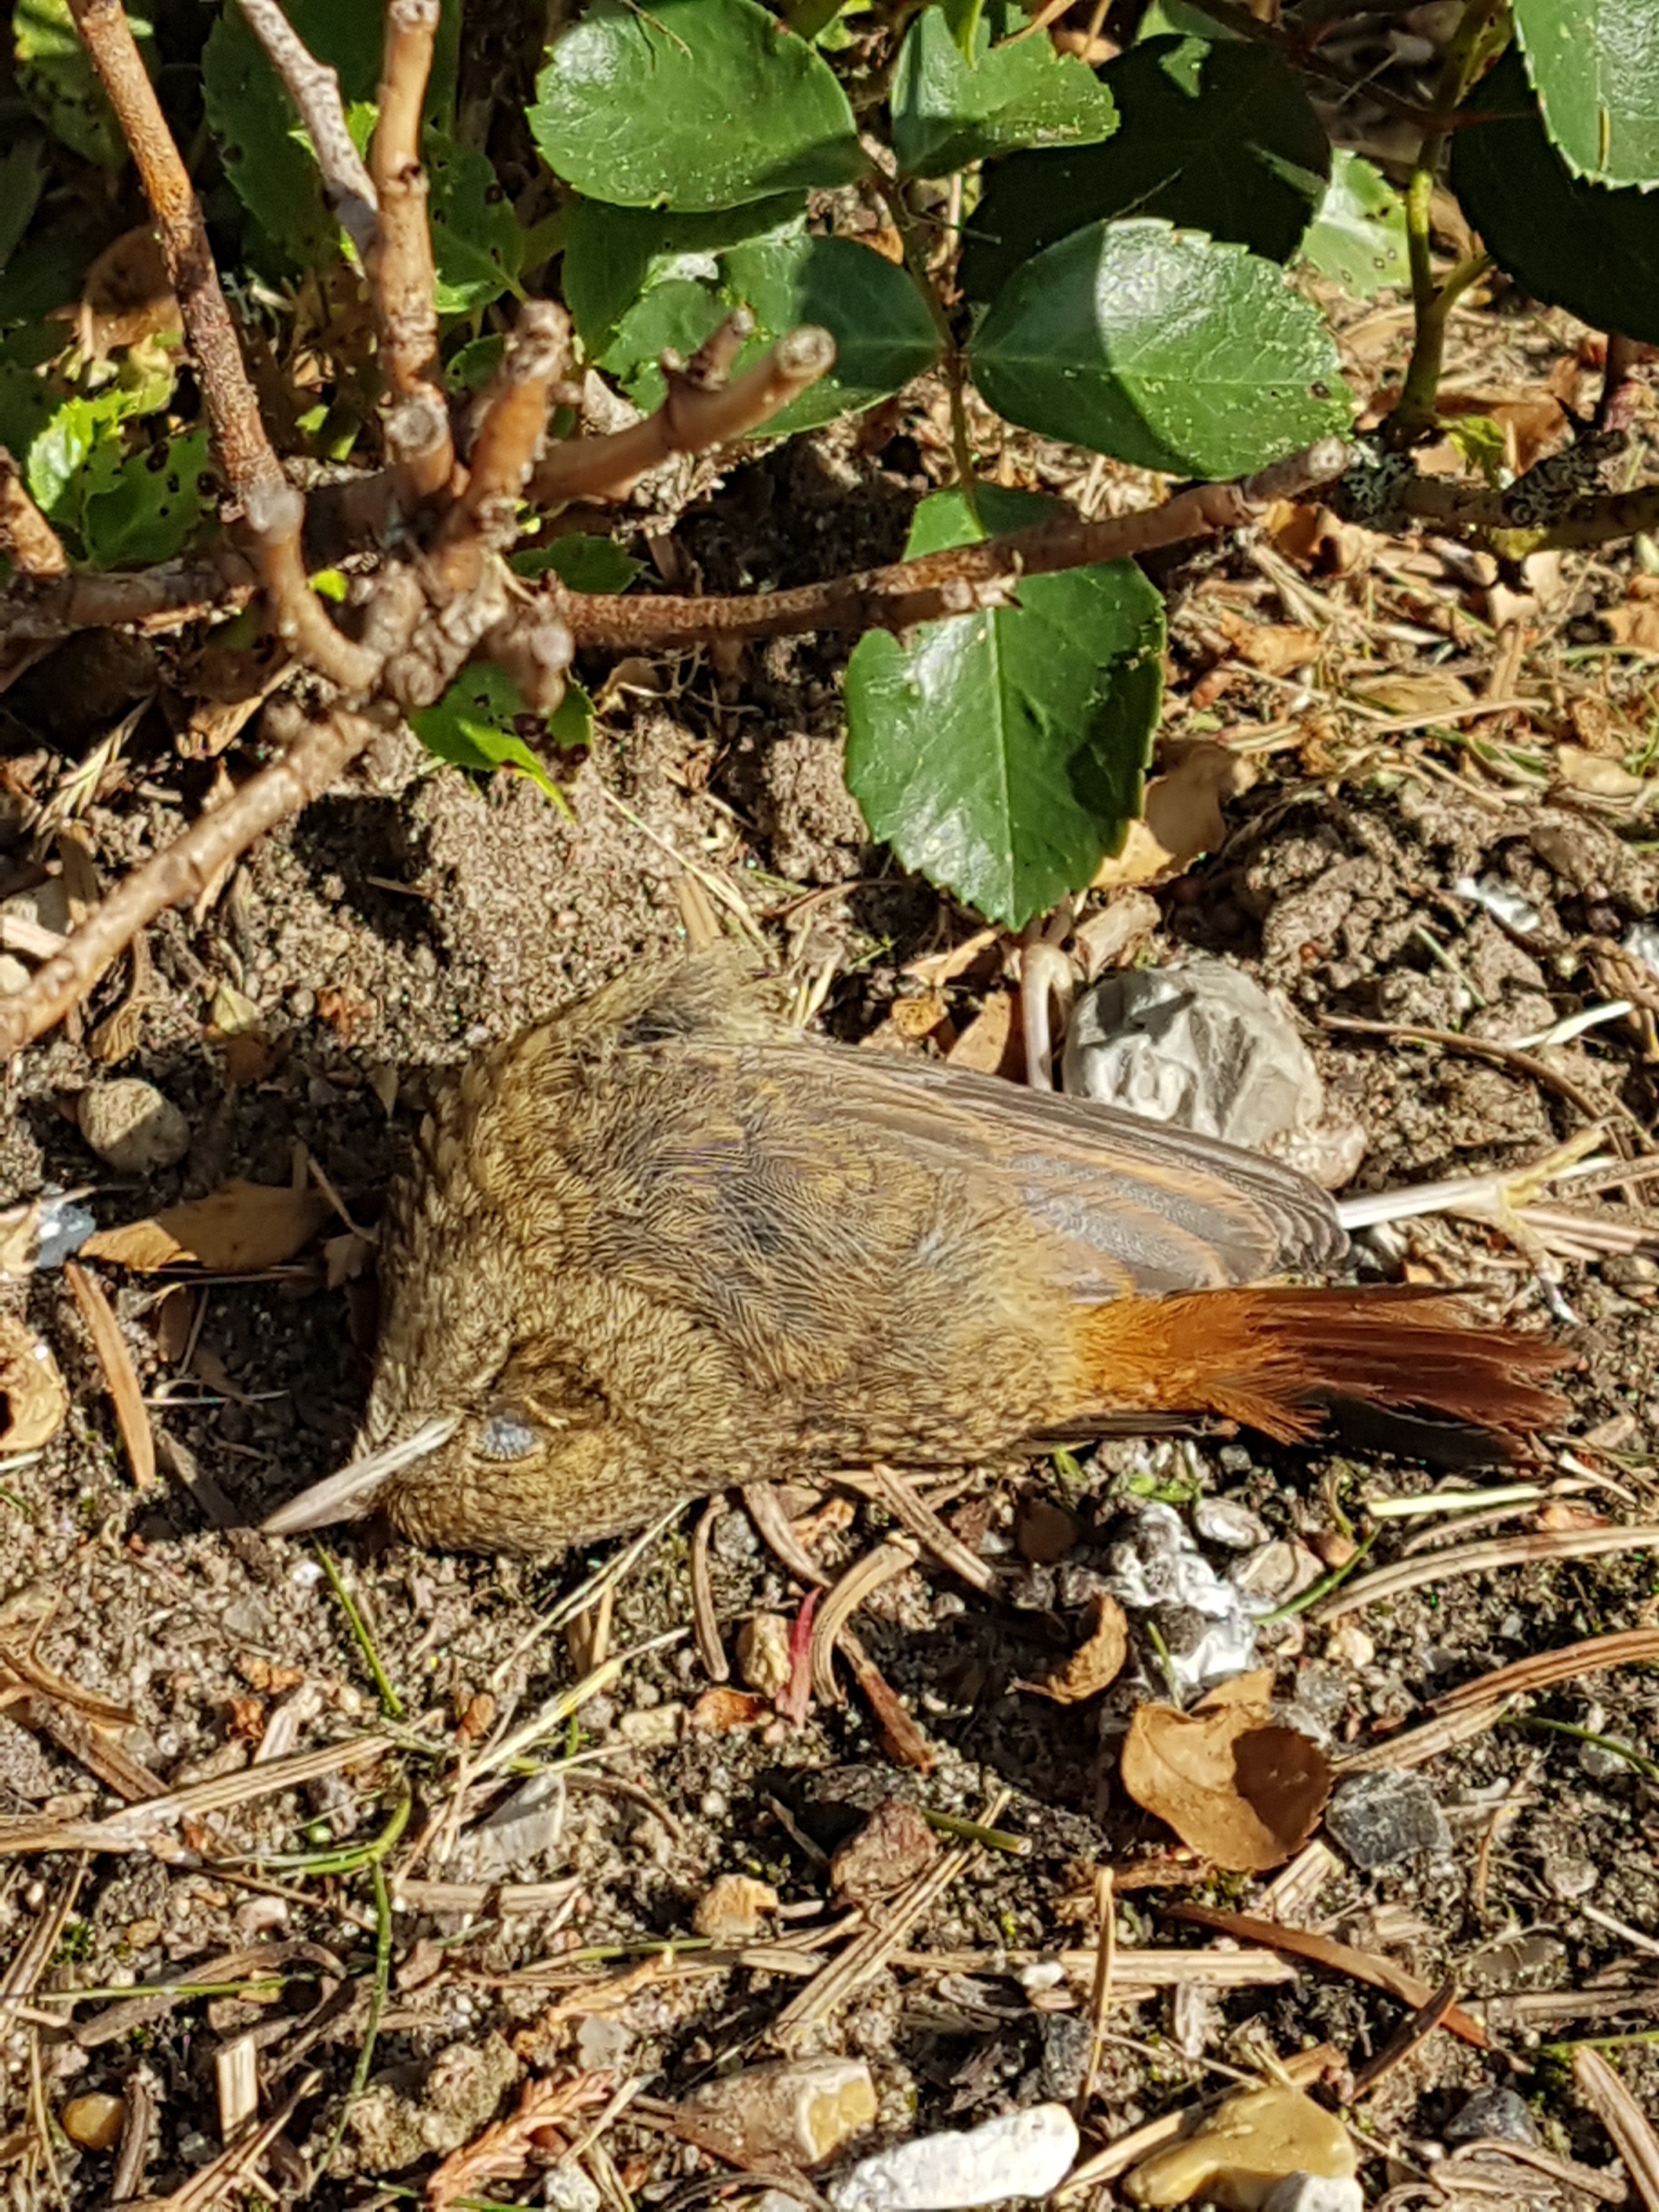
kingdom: Animalia
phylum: Chordata
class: Aves
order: Passeriformes
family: Muscicapidae
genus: Phoenicurus
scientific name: Phoenicurus phoenicurus
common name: Rødstjert
